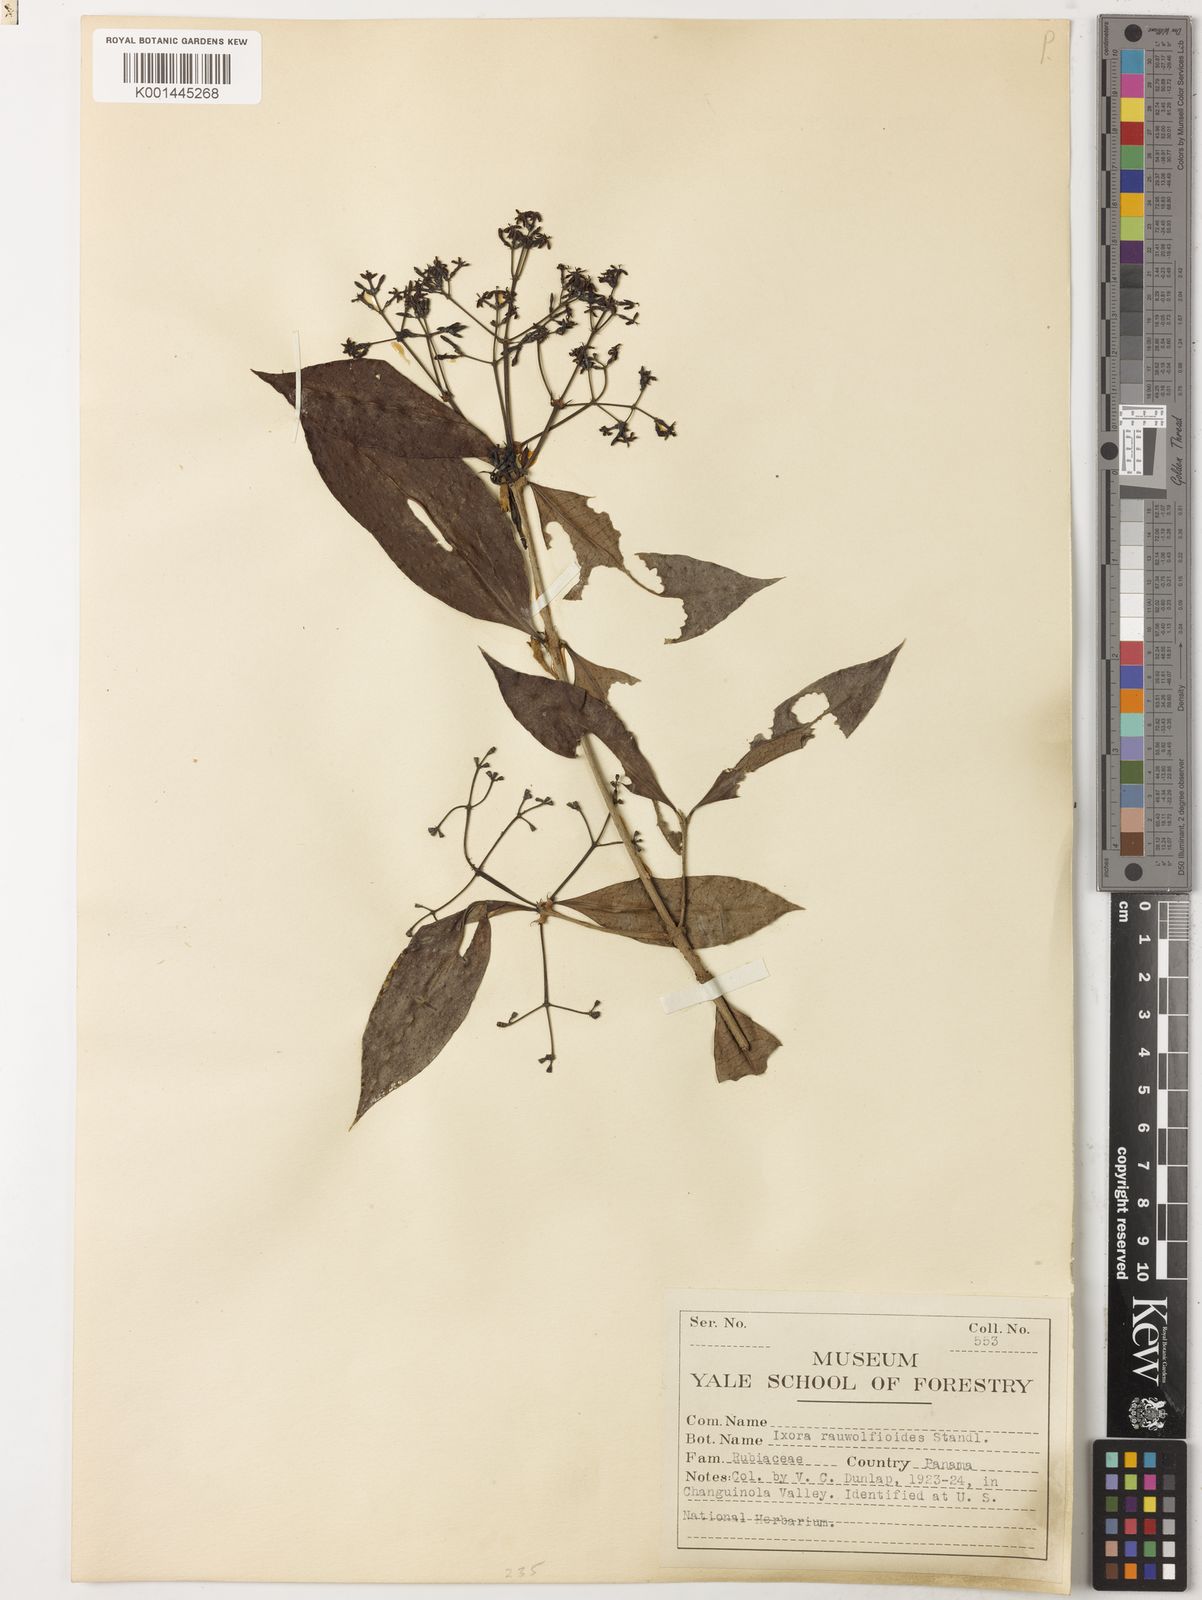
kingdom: Plantae
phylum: Tracheophyta
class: Magnoliopsida
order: Gentianales
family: Rubiaceae
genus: Ixora
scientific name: Ixora nicaraguensis
